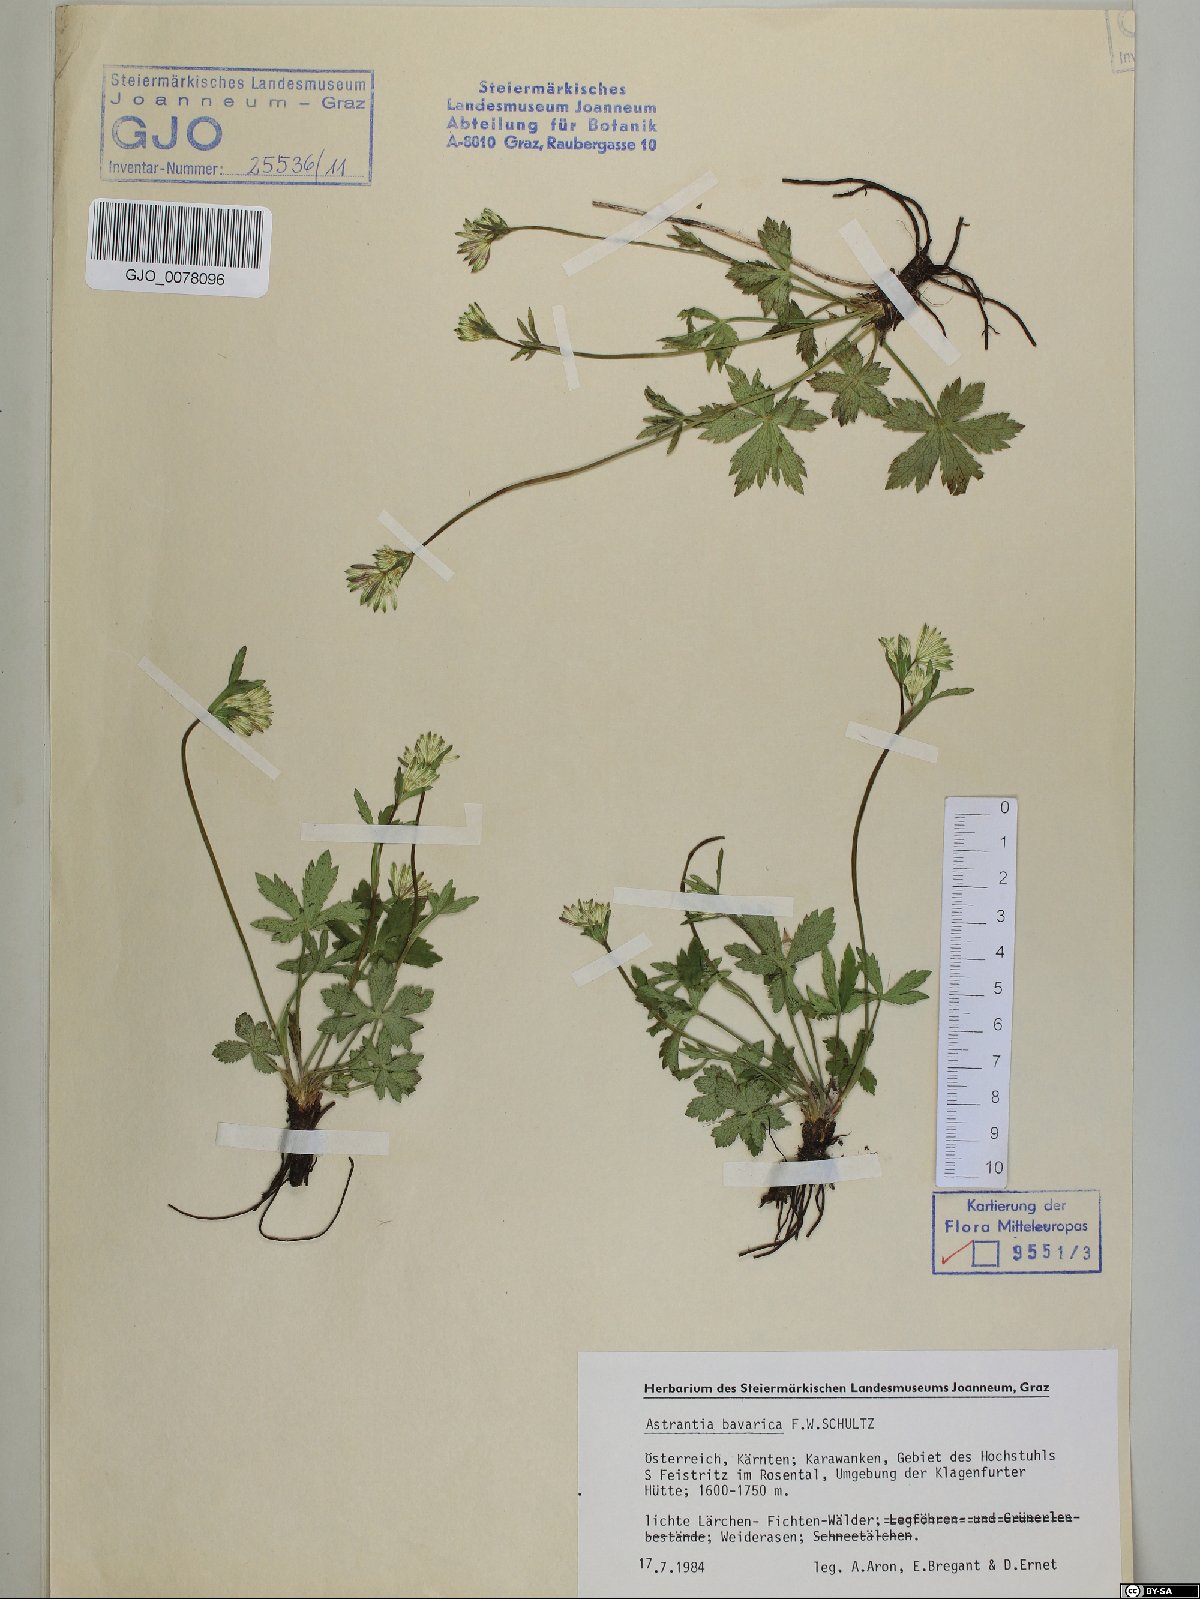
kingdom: Plantae
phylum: Tracheophyta
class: Magnoliopsida
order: Apiales
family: Apiaceae
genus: Astrantia
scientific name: Astrantia bavarica
